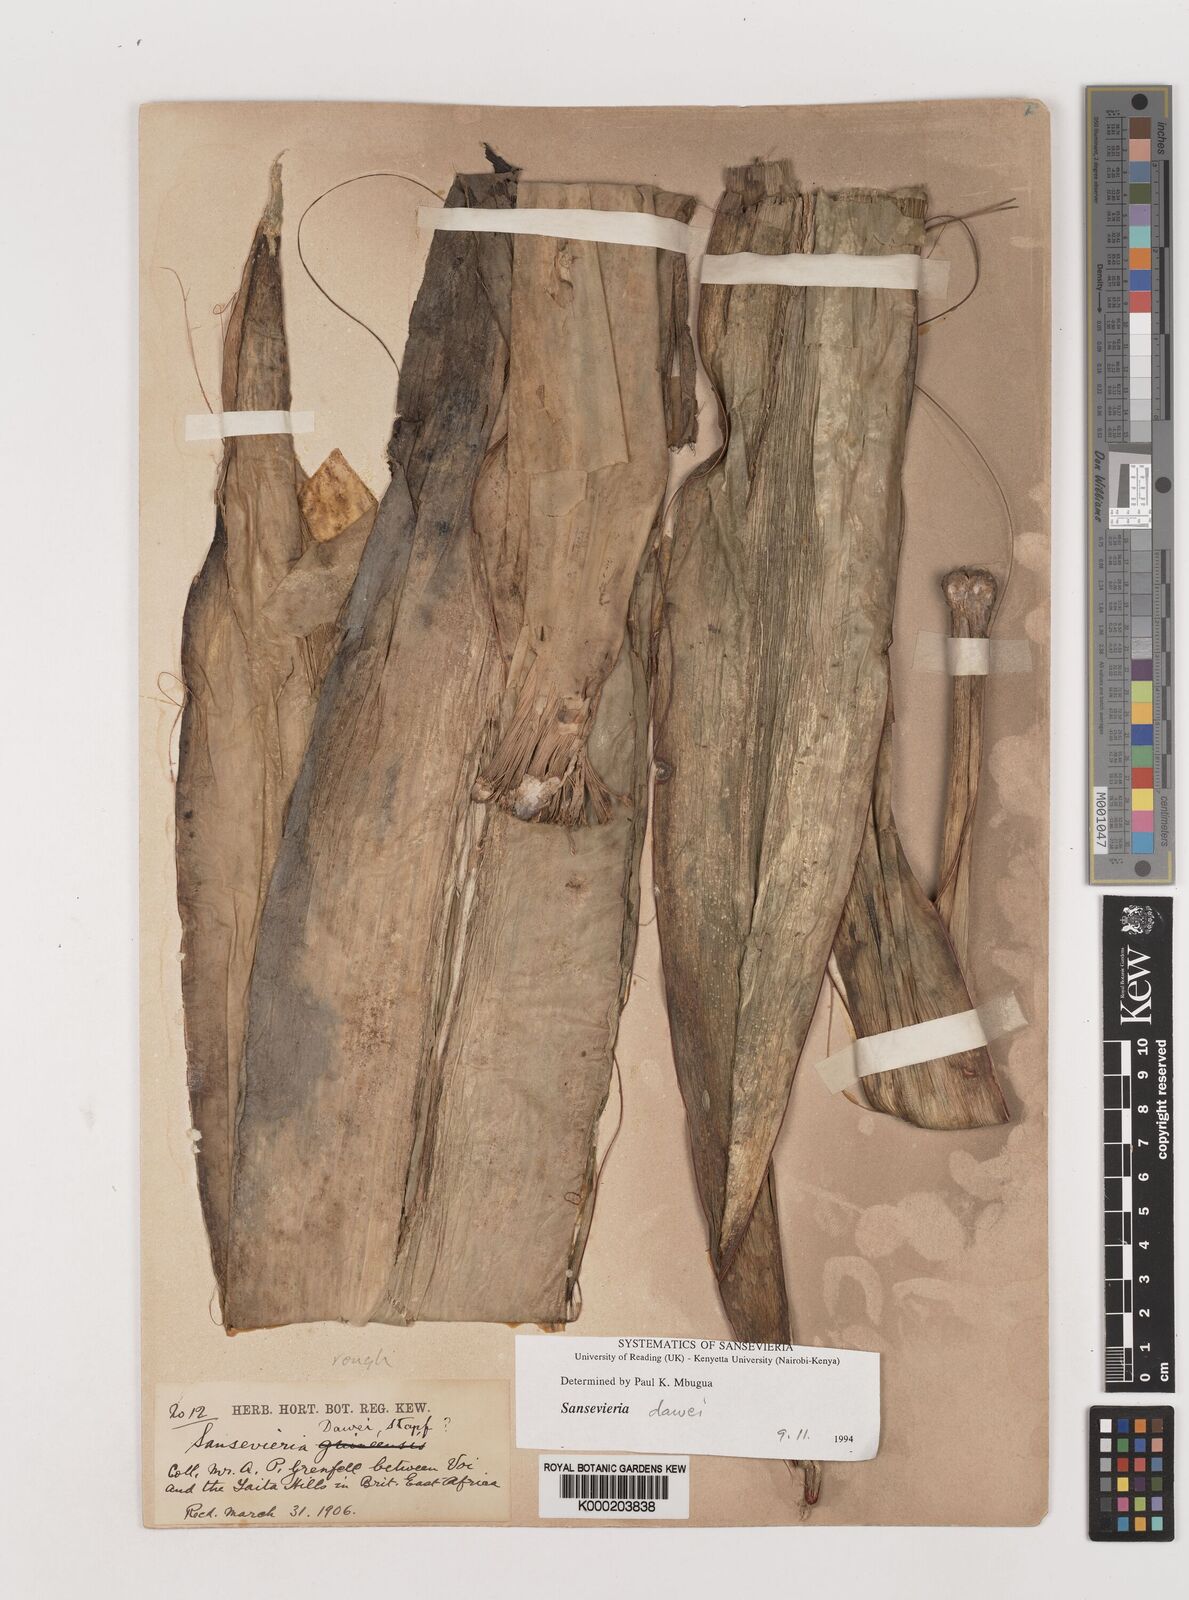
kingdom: Plantae
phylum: Tracheophyta
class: Liliopsida
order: Asparagales
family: Asparagaceae
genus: Dracaena
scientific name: Dracaena forskaliana
